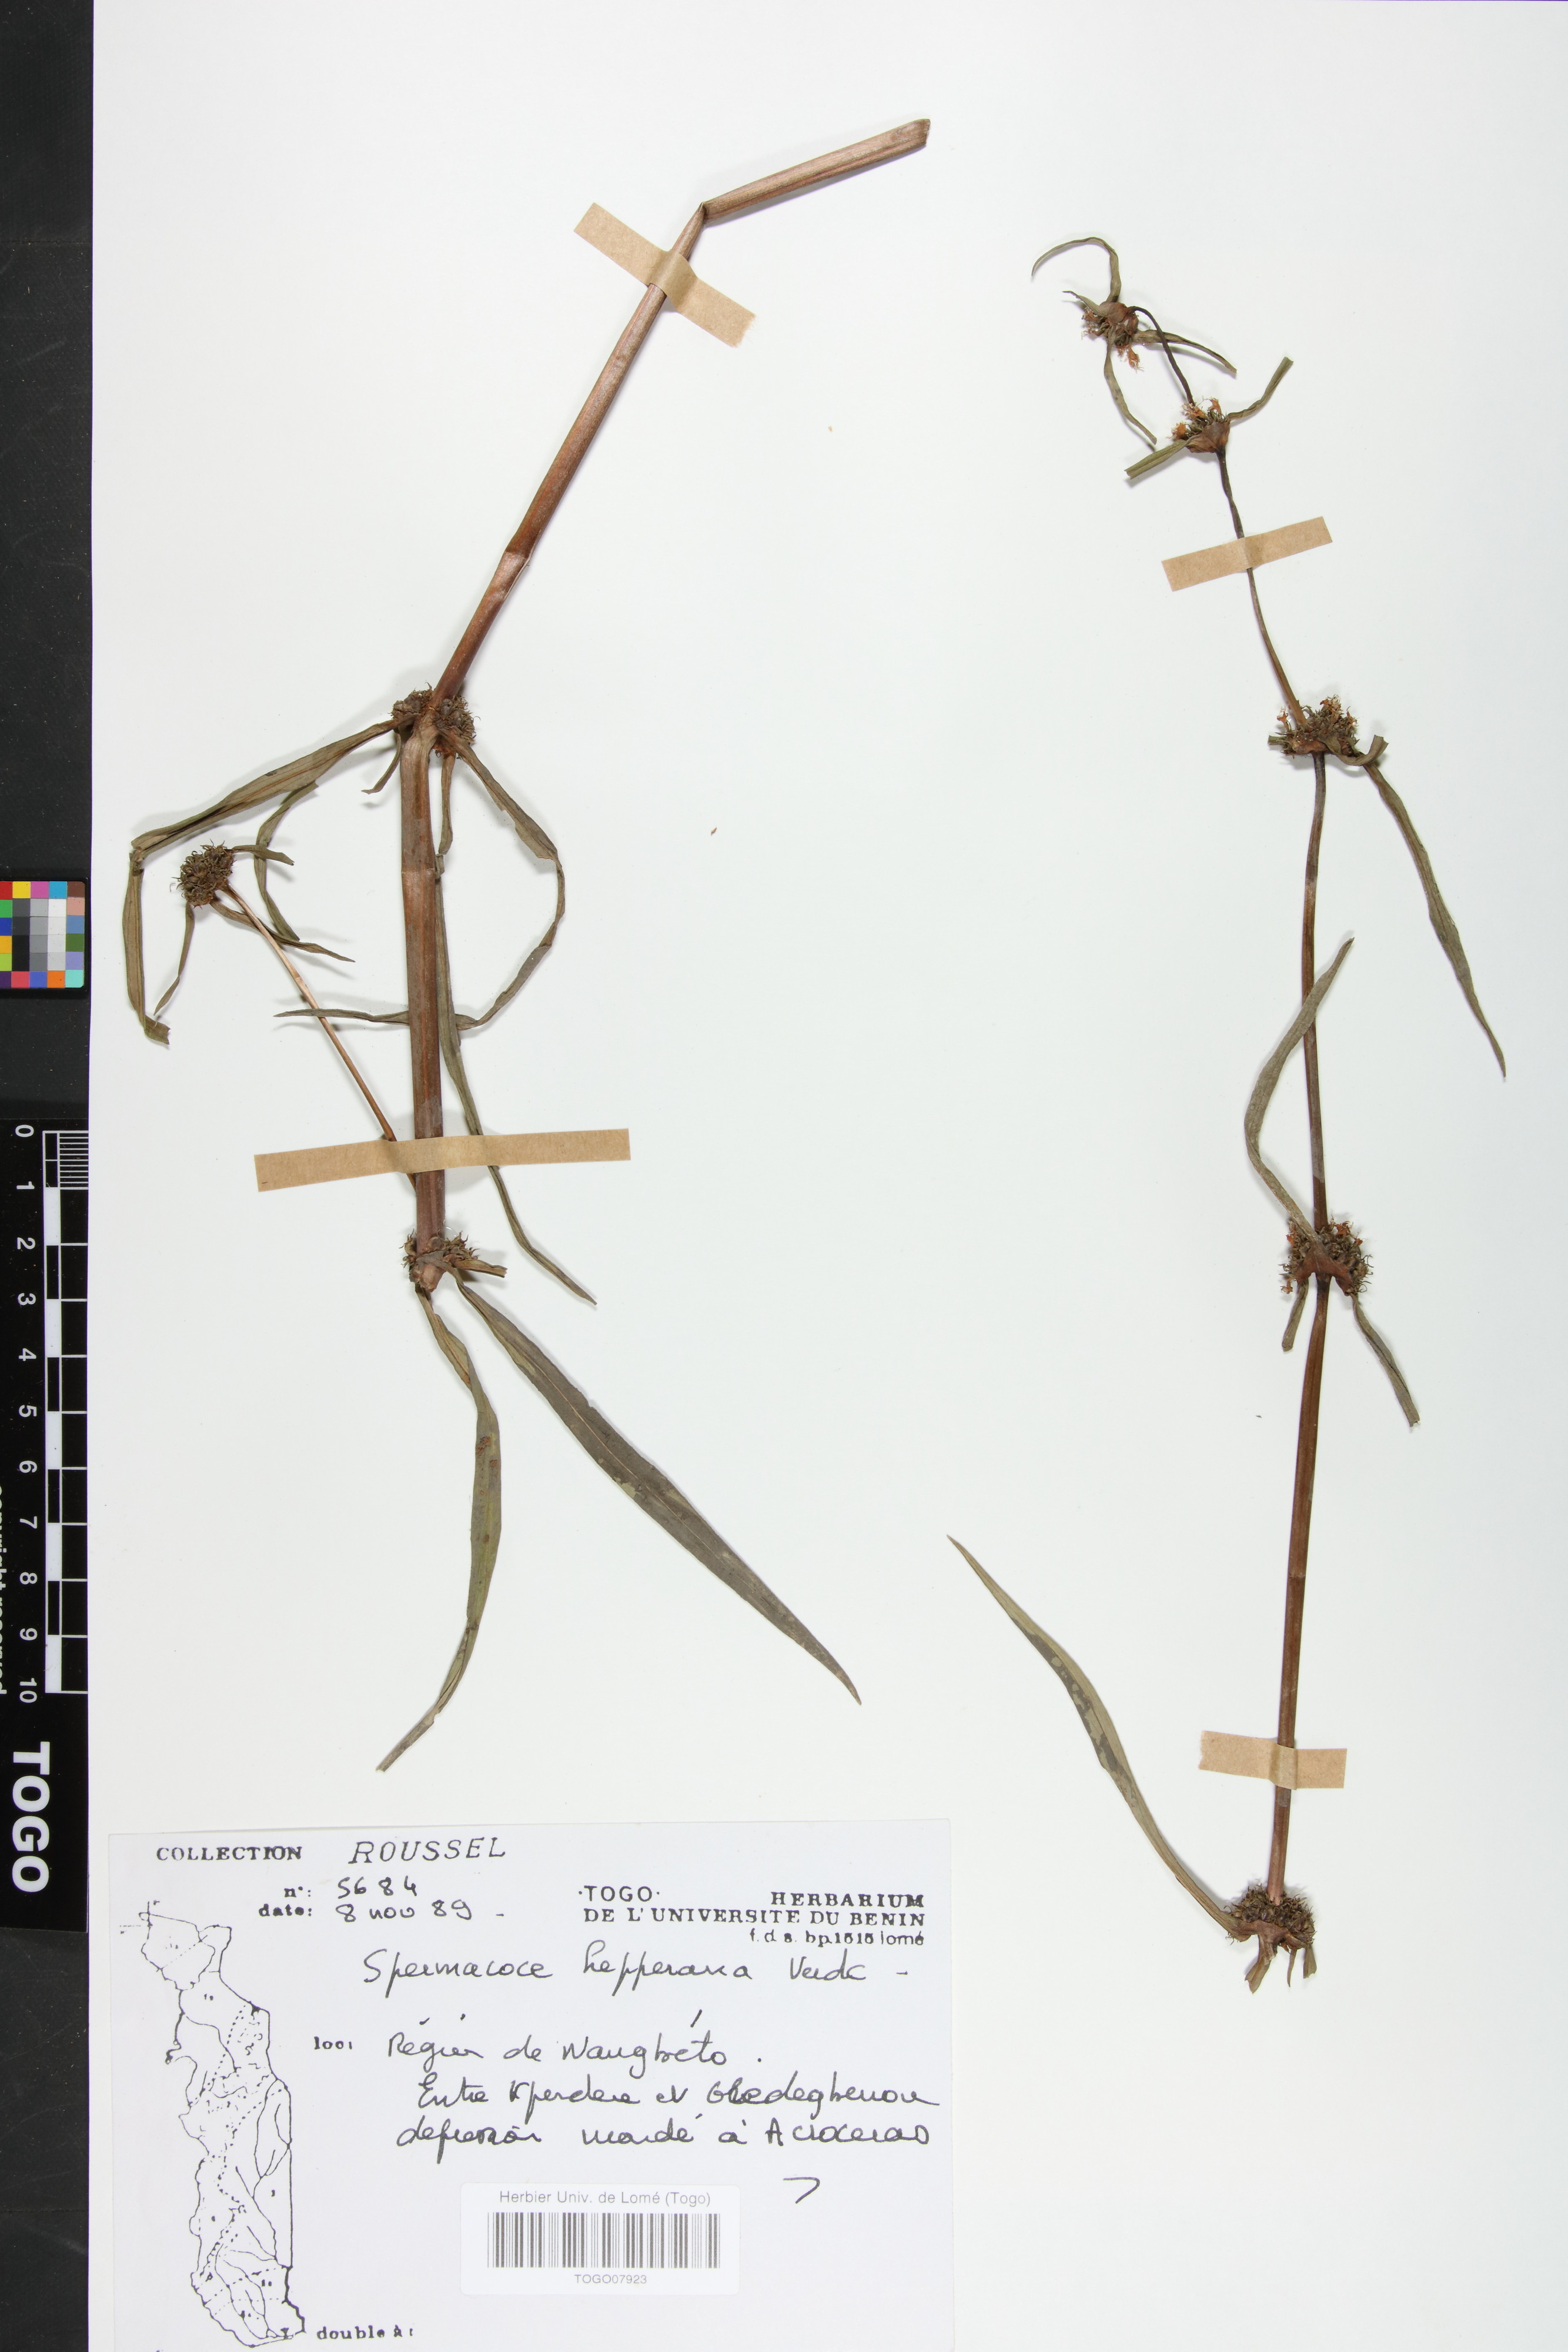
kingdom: Plantae
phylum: Tracheophyta
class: Magnoliopsida
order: Gentianales
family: Rubiaceae
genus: Spermacoce
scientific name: Spermacoce hepperiana
